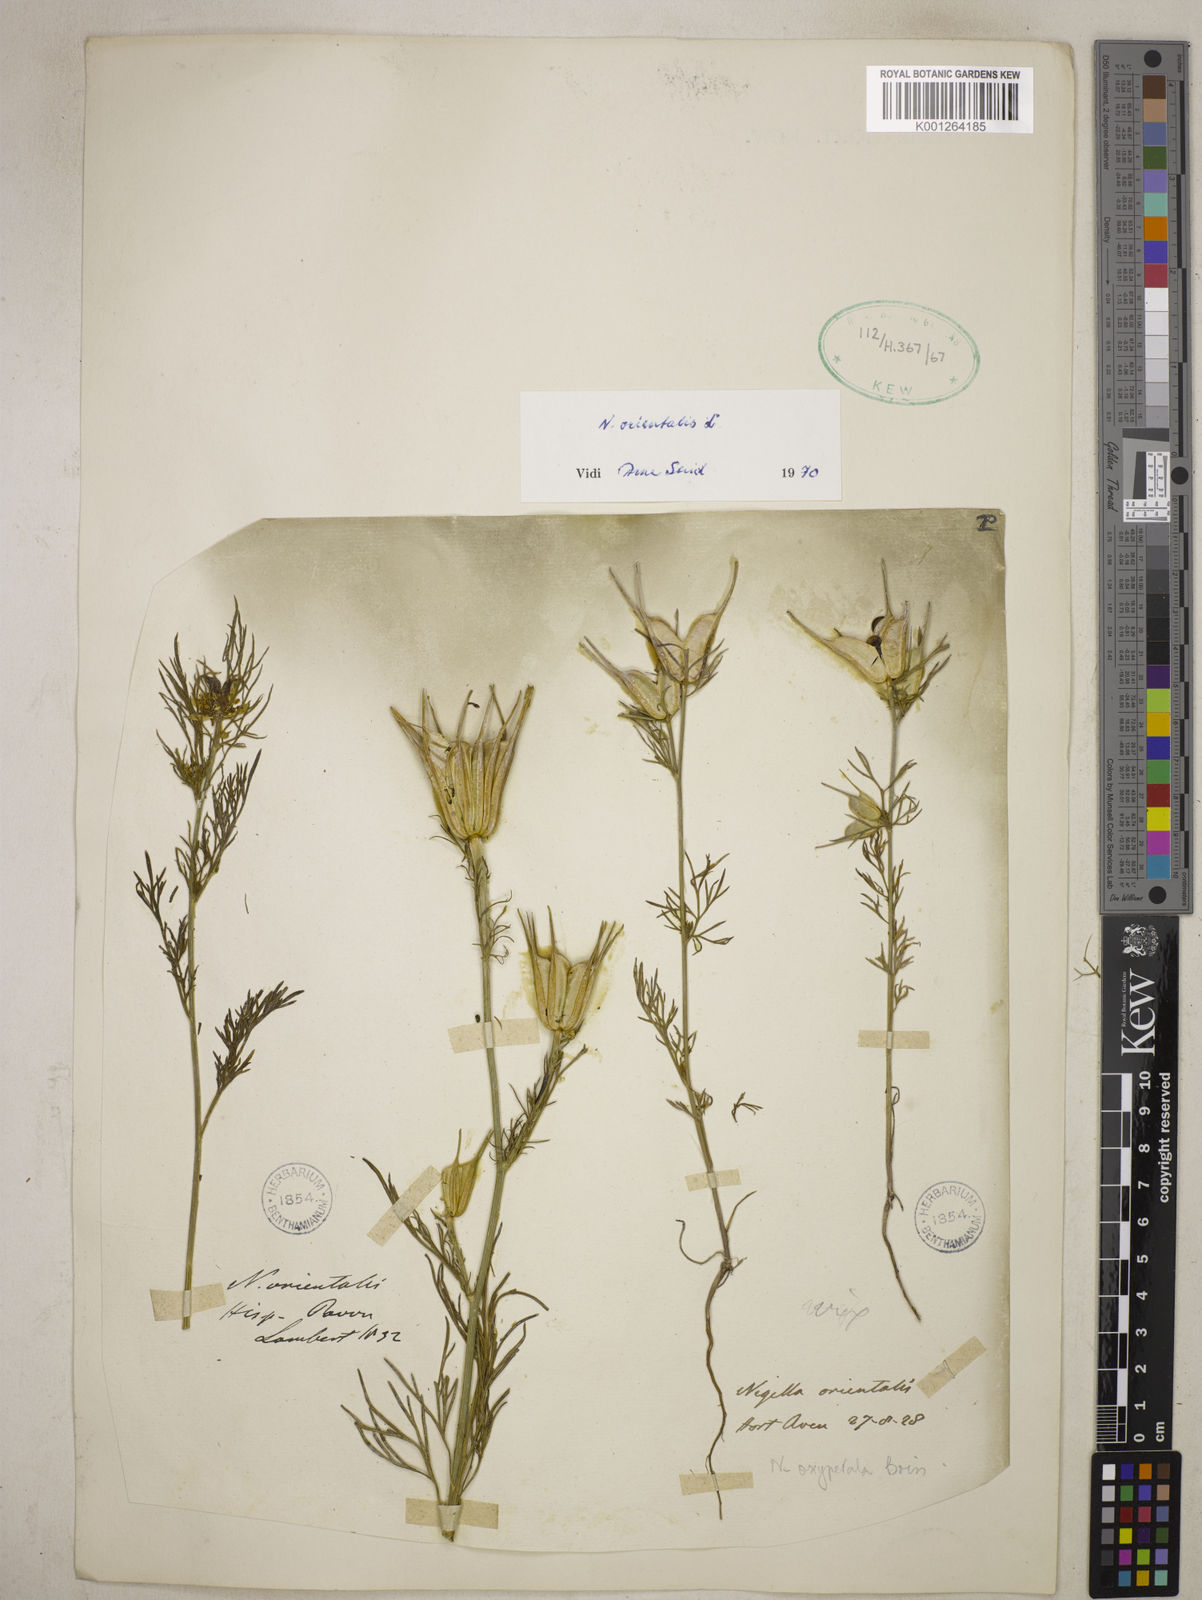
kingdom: Plantae
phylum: Tracheophyta
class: Magnoliopsida
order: Ranunculales
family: Ranunculaceae
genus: Nigella
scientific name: Nigella orientalis
